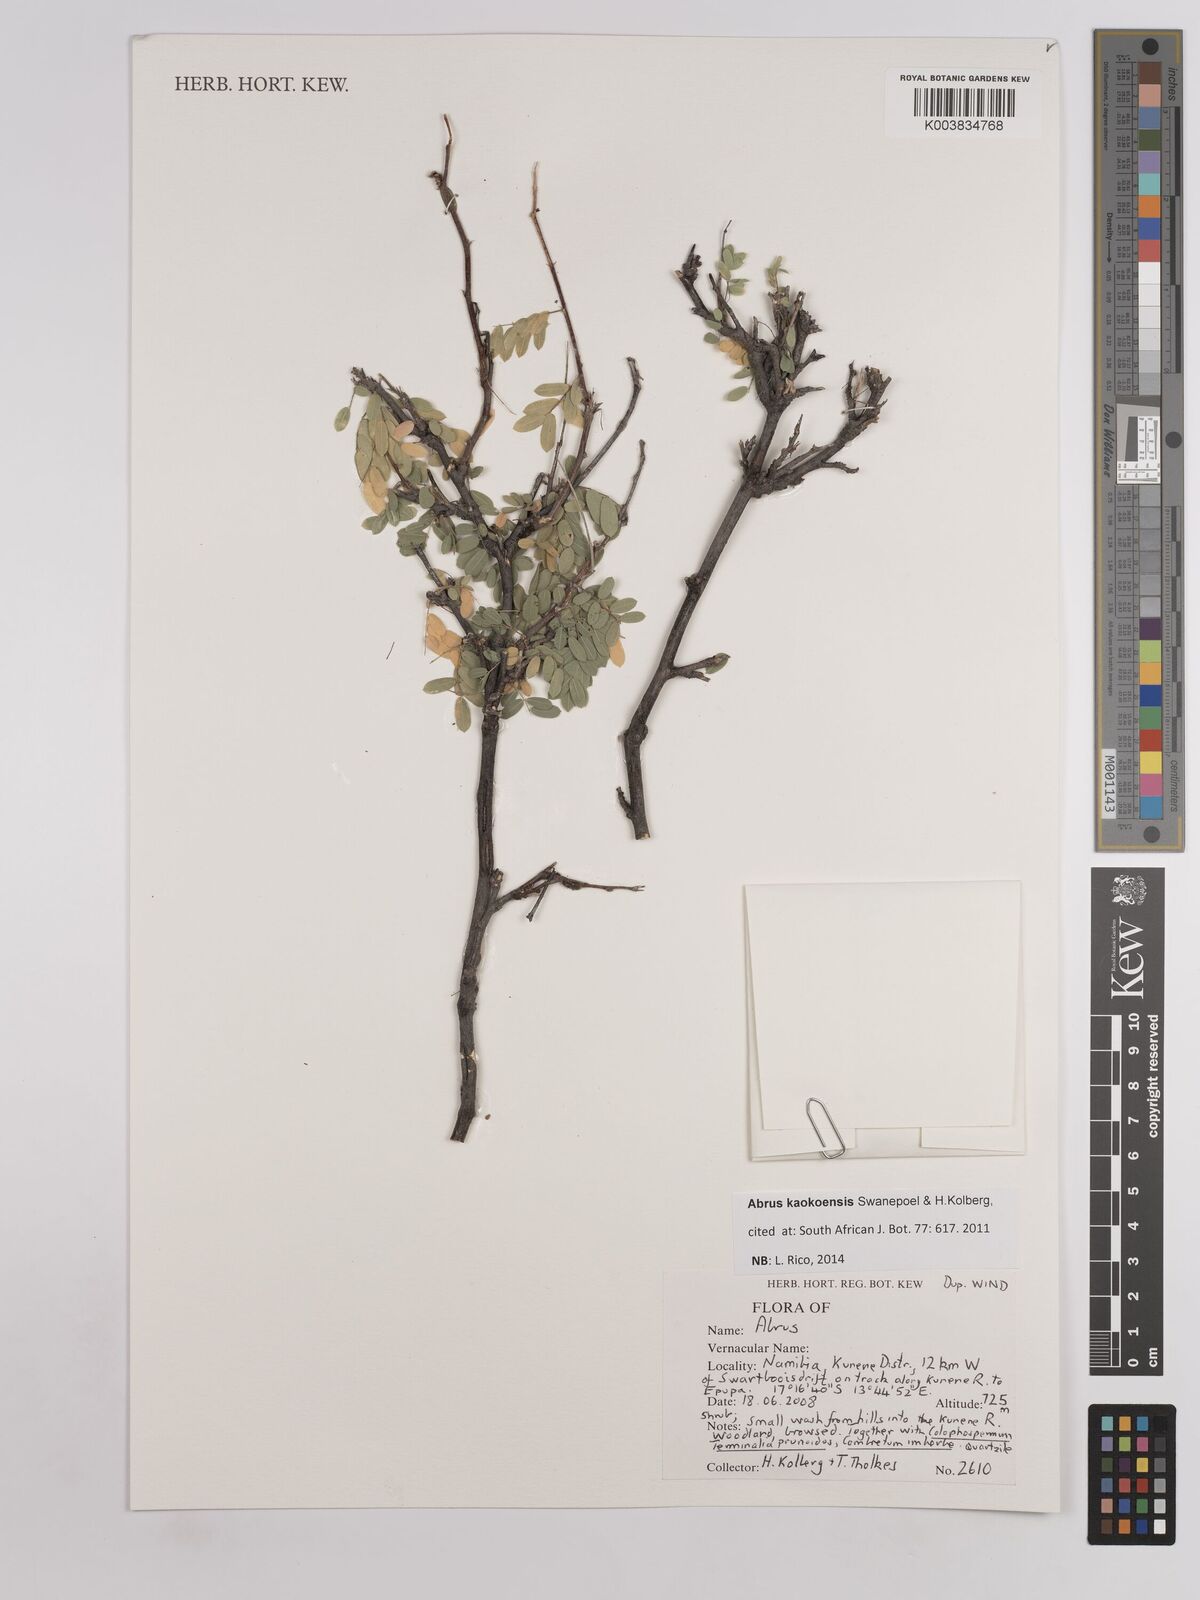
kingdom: Plantae
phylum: Tracheophyta
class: Magnoliopsida
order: Fabales
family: Fabaceae
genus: Abrus
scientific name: Abrus kaokoensis
